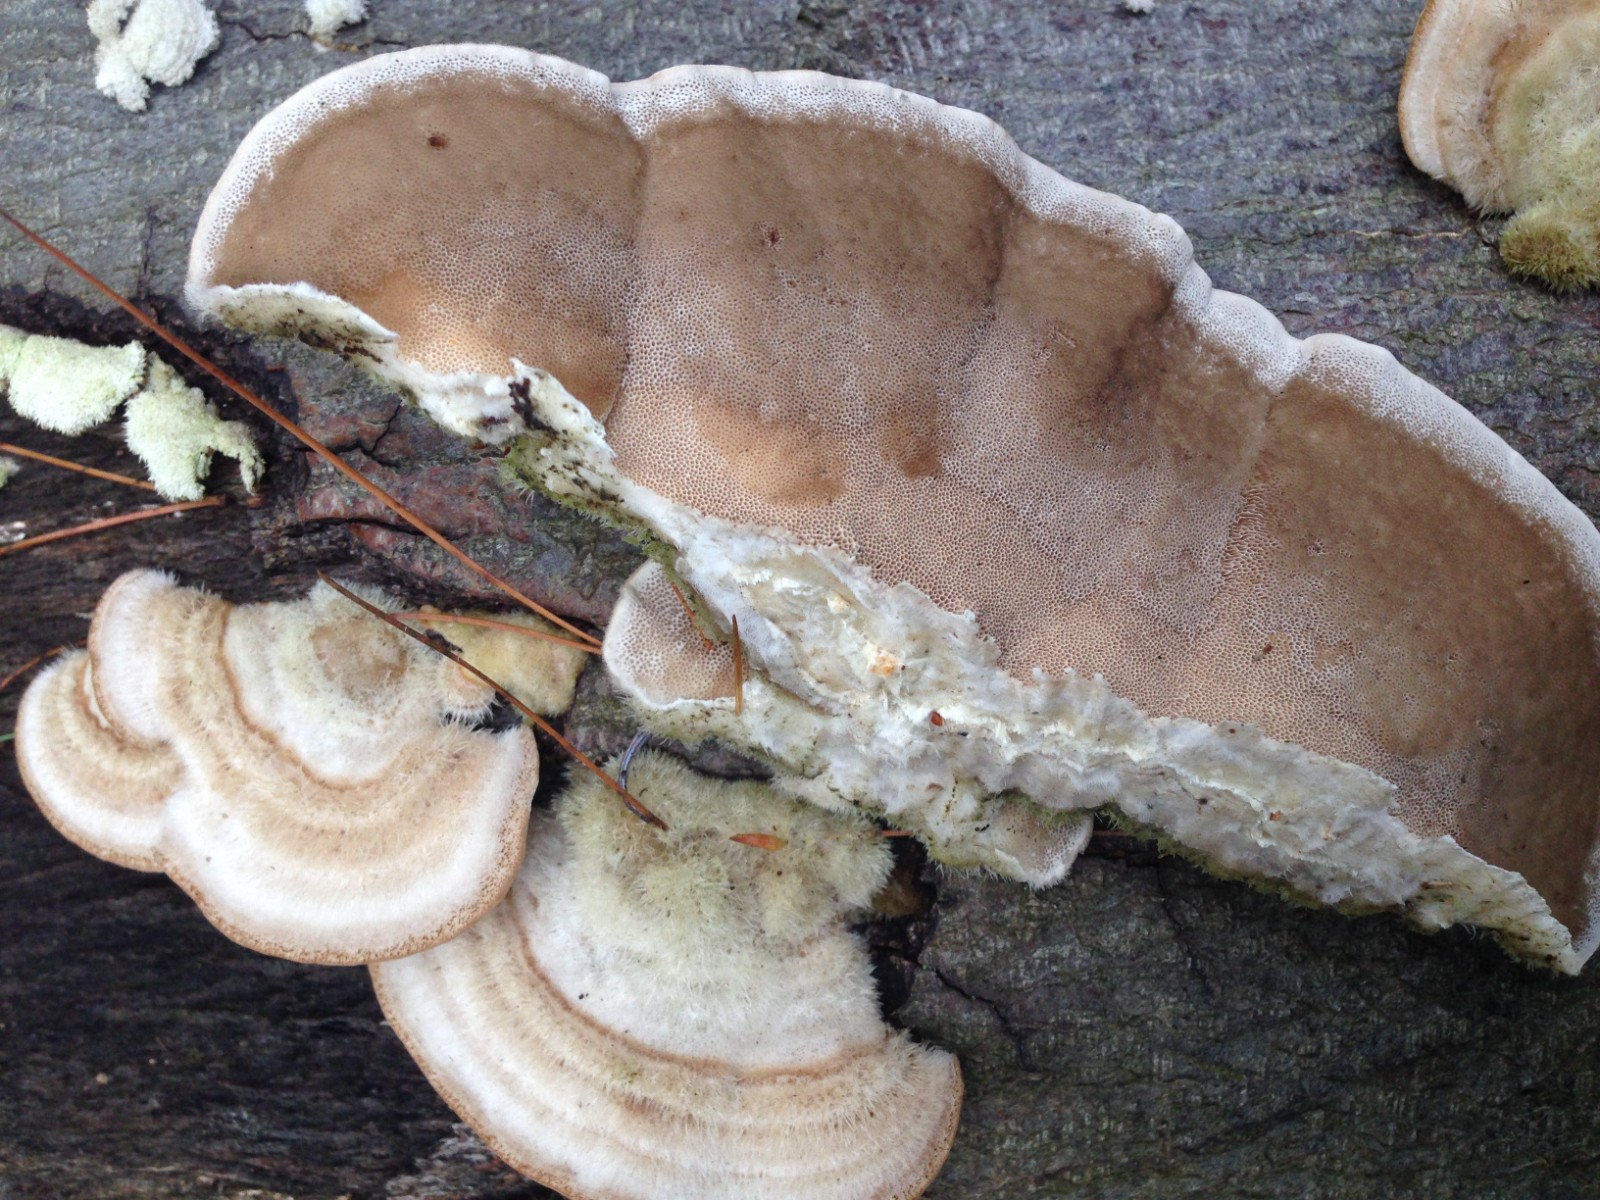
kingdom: Fungi
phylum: Basidiomycota
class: Agaricomycetes
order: Polyporales
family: Polyporaceae
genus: Trametes
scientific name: Trametes hirsuta
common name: håret læderporesvamp
